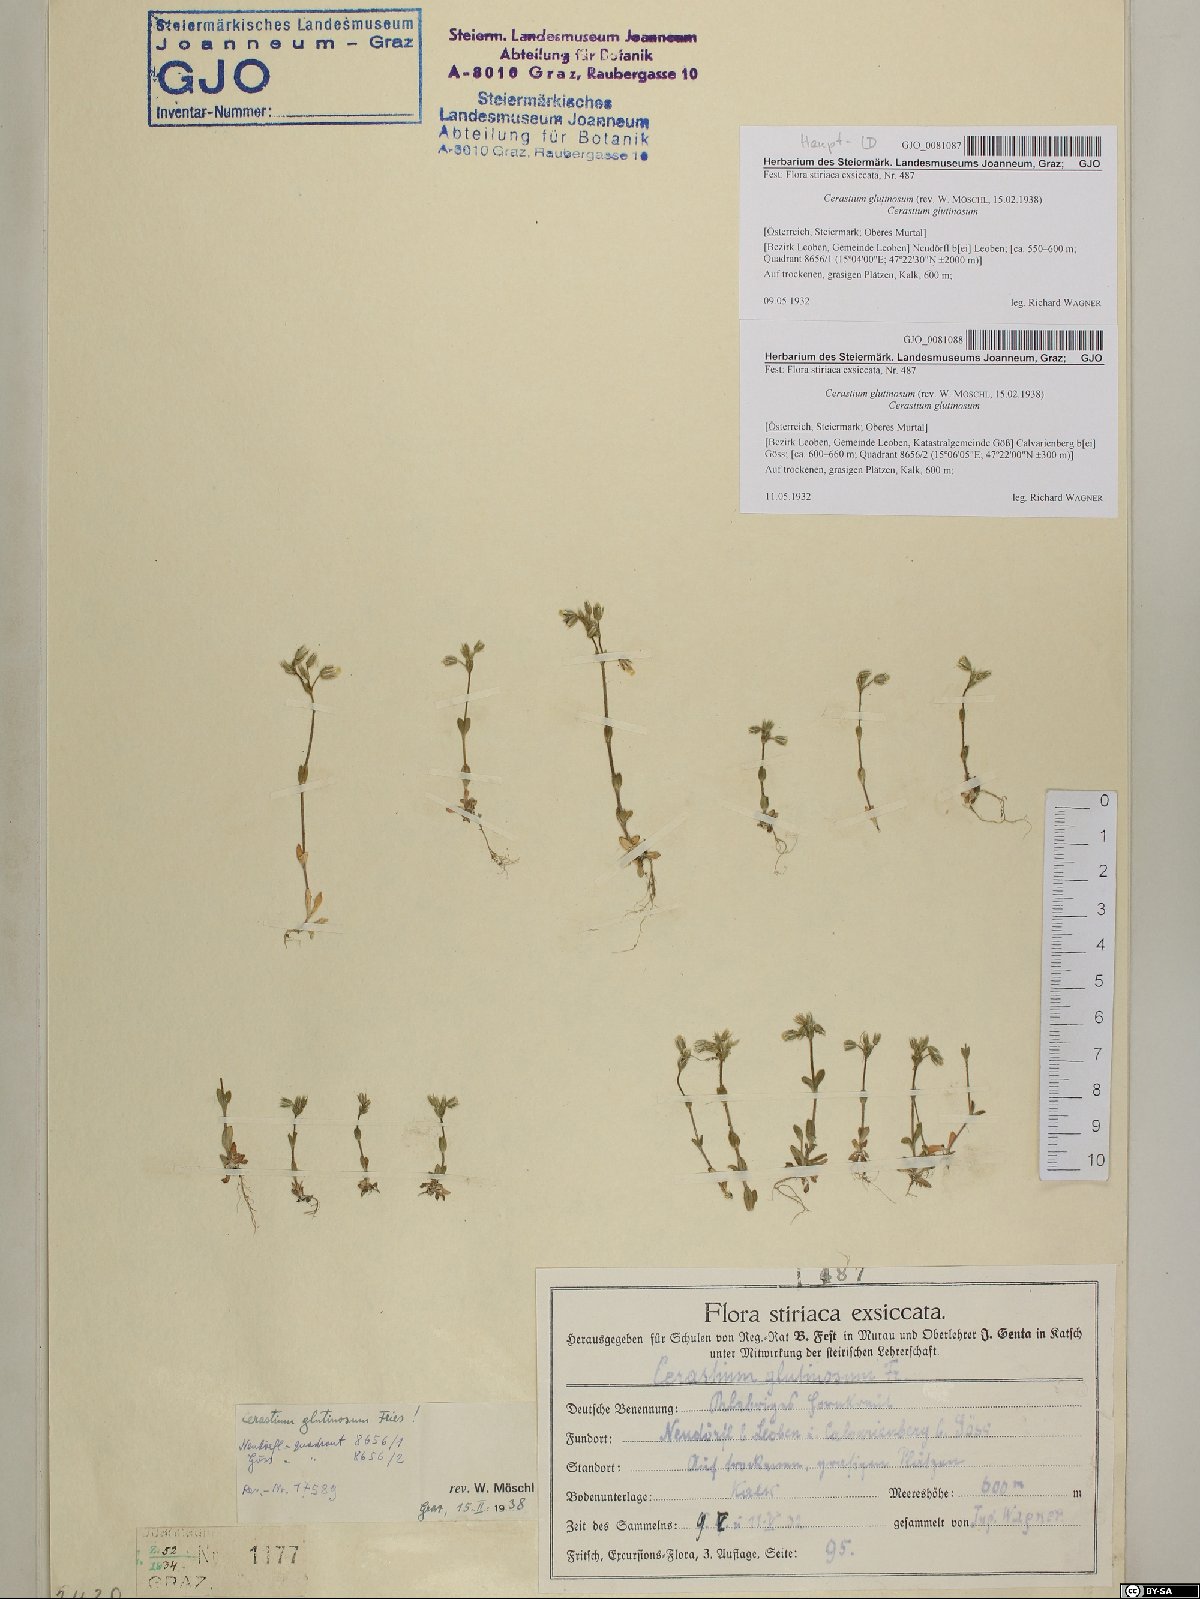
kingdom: Plantae
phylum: Tracheophyta
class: Magnoliopsida
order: Caryophyllales
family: Caryophyllaceae
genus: Cerastium
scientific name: Cerastium glutinosum
